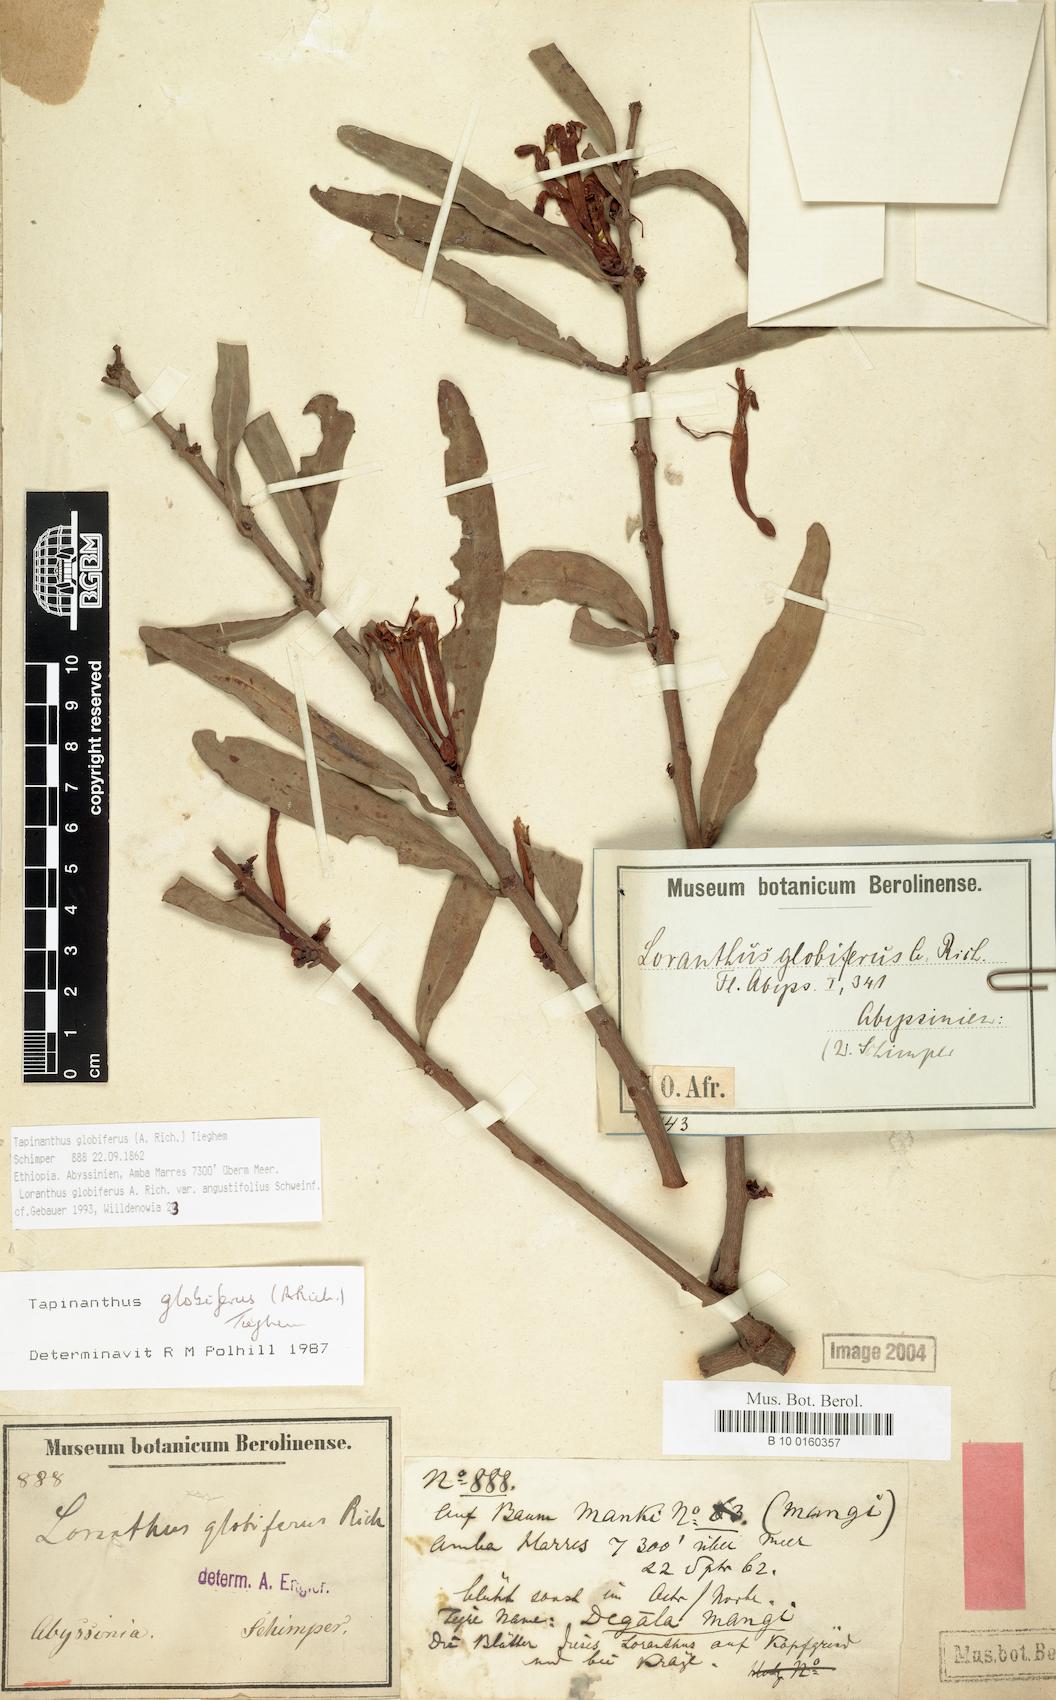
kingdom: Plantae
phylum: Tracheophyta
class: Magnoliopsida
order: Santalales
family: Loranthaceae
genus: Tapinanthus
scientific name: Tapinanthus globiferus
